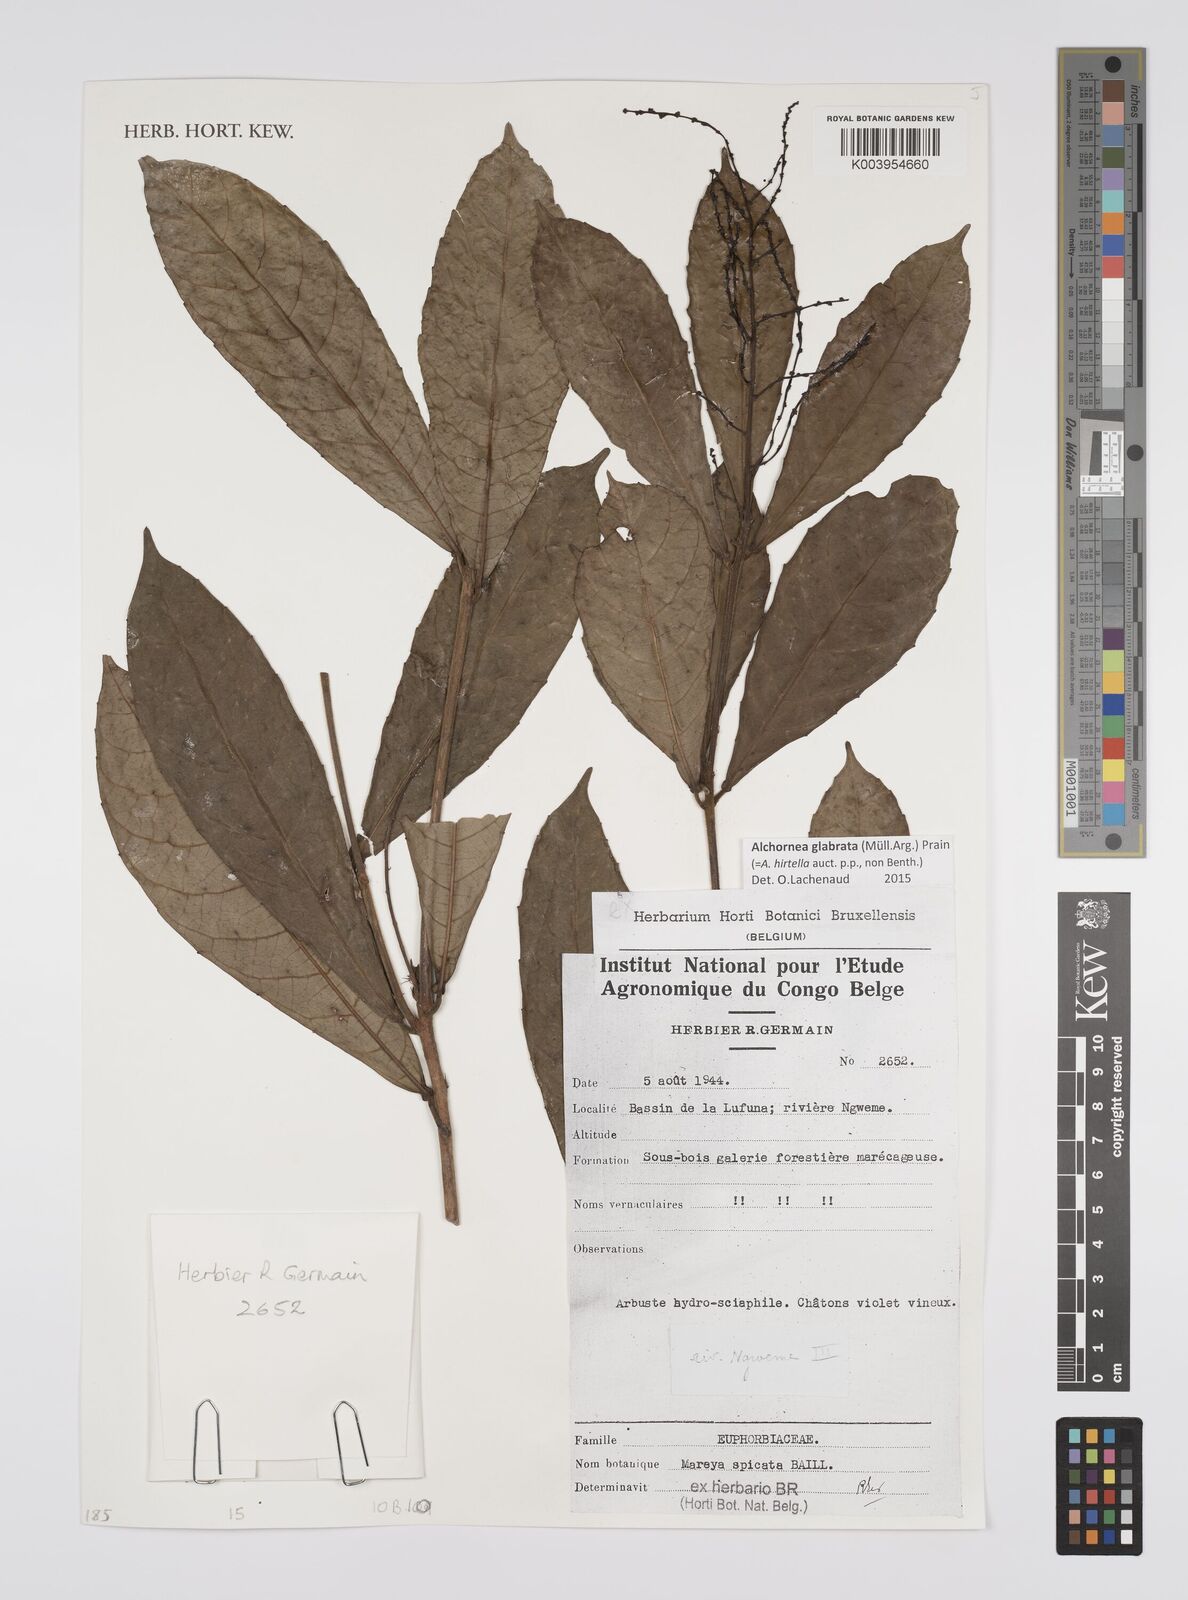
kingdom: Plantae
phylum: Tracheophyta
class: Magnoliopsida
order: Malpighiales
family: Euphorbiaceae
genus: Alchornea
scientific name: Alchornea hirtella
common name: Forest bead-string
